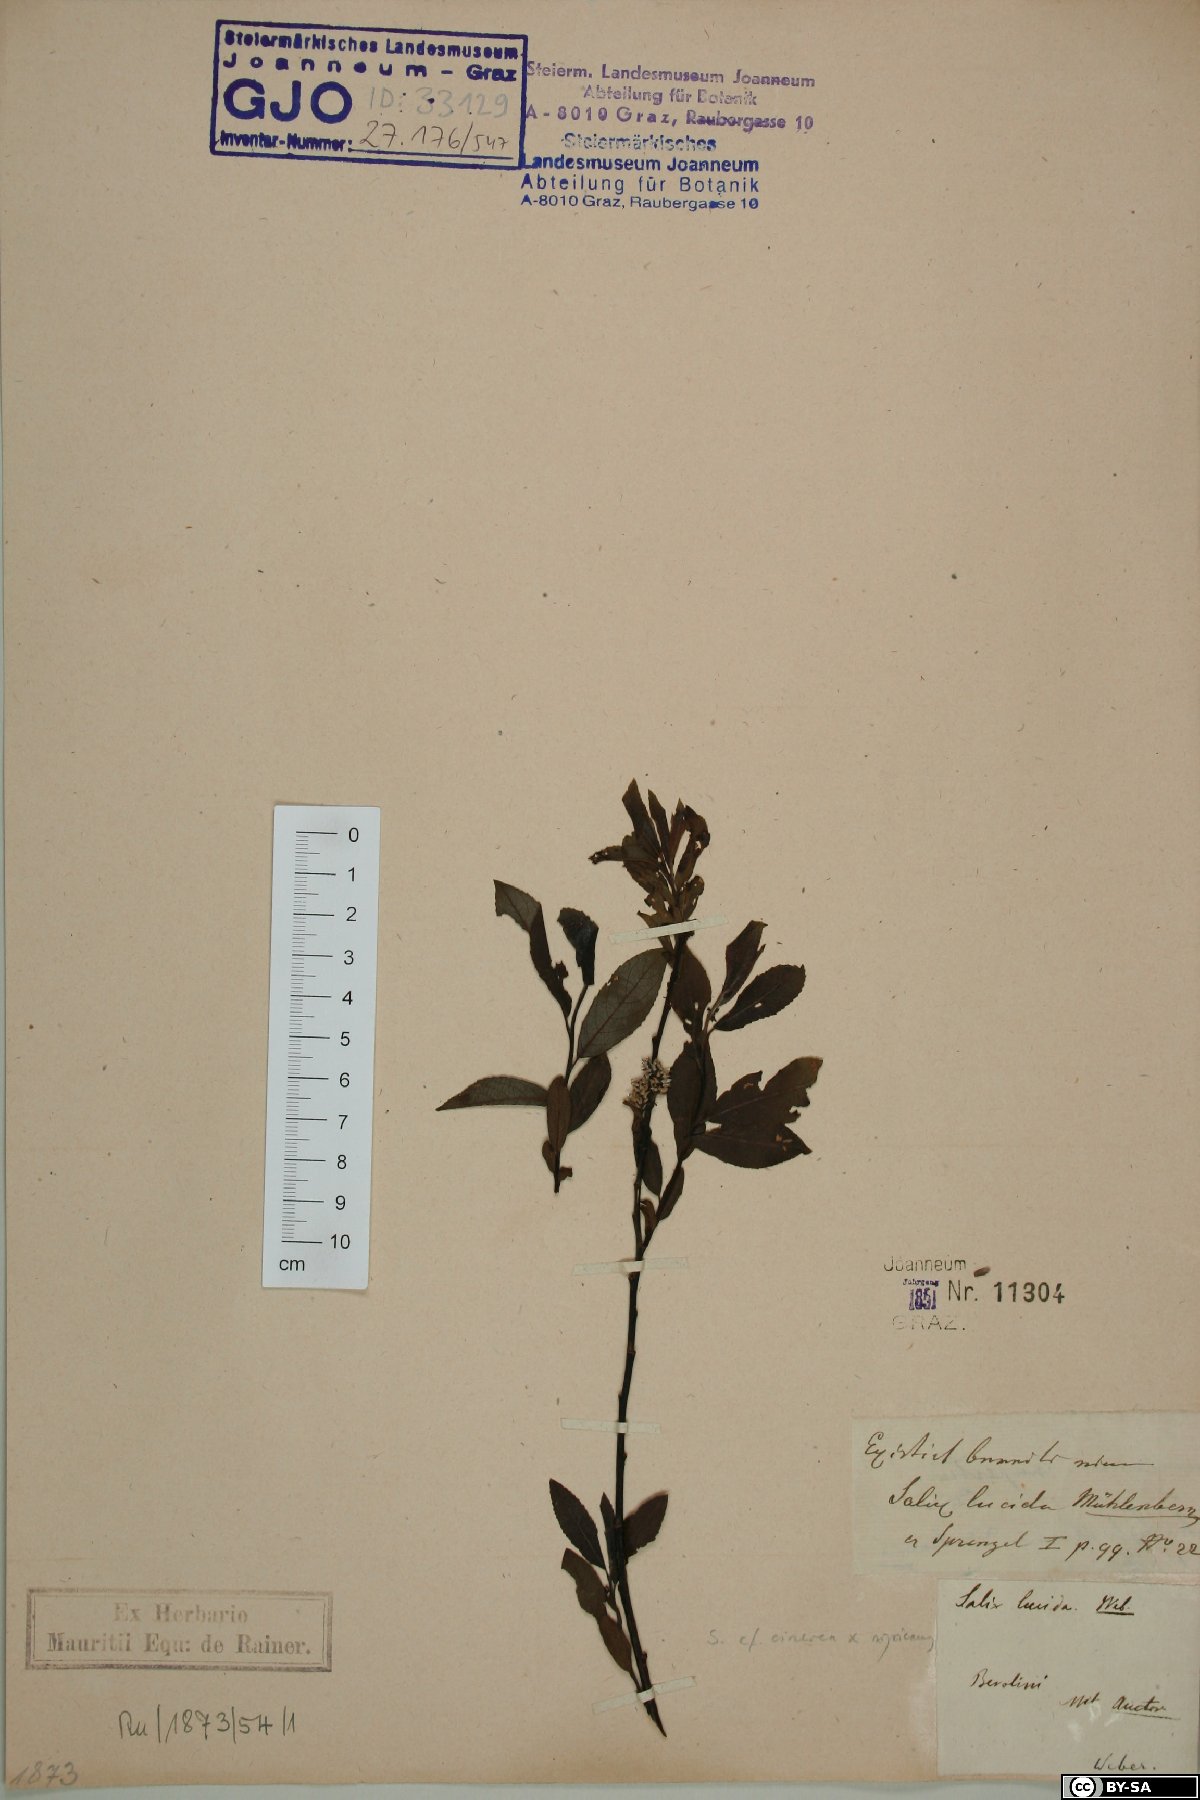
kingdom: Plantae
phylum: Tracheophyta
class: Magnoliopsida
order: Malpighiales
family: Salicaceae
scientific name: Salicaceae
